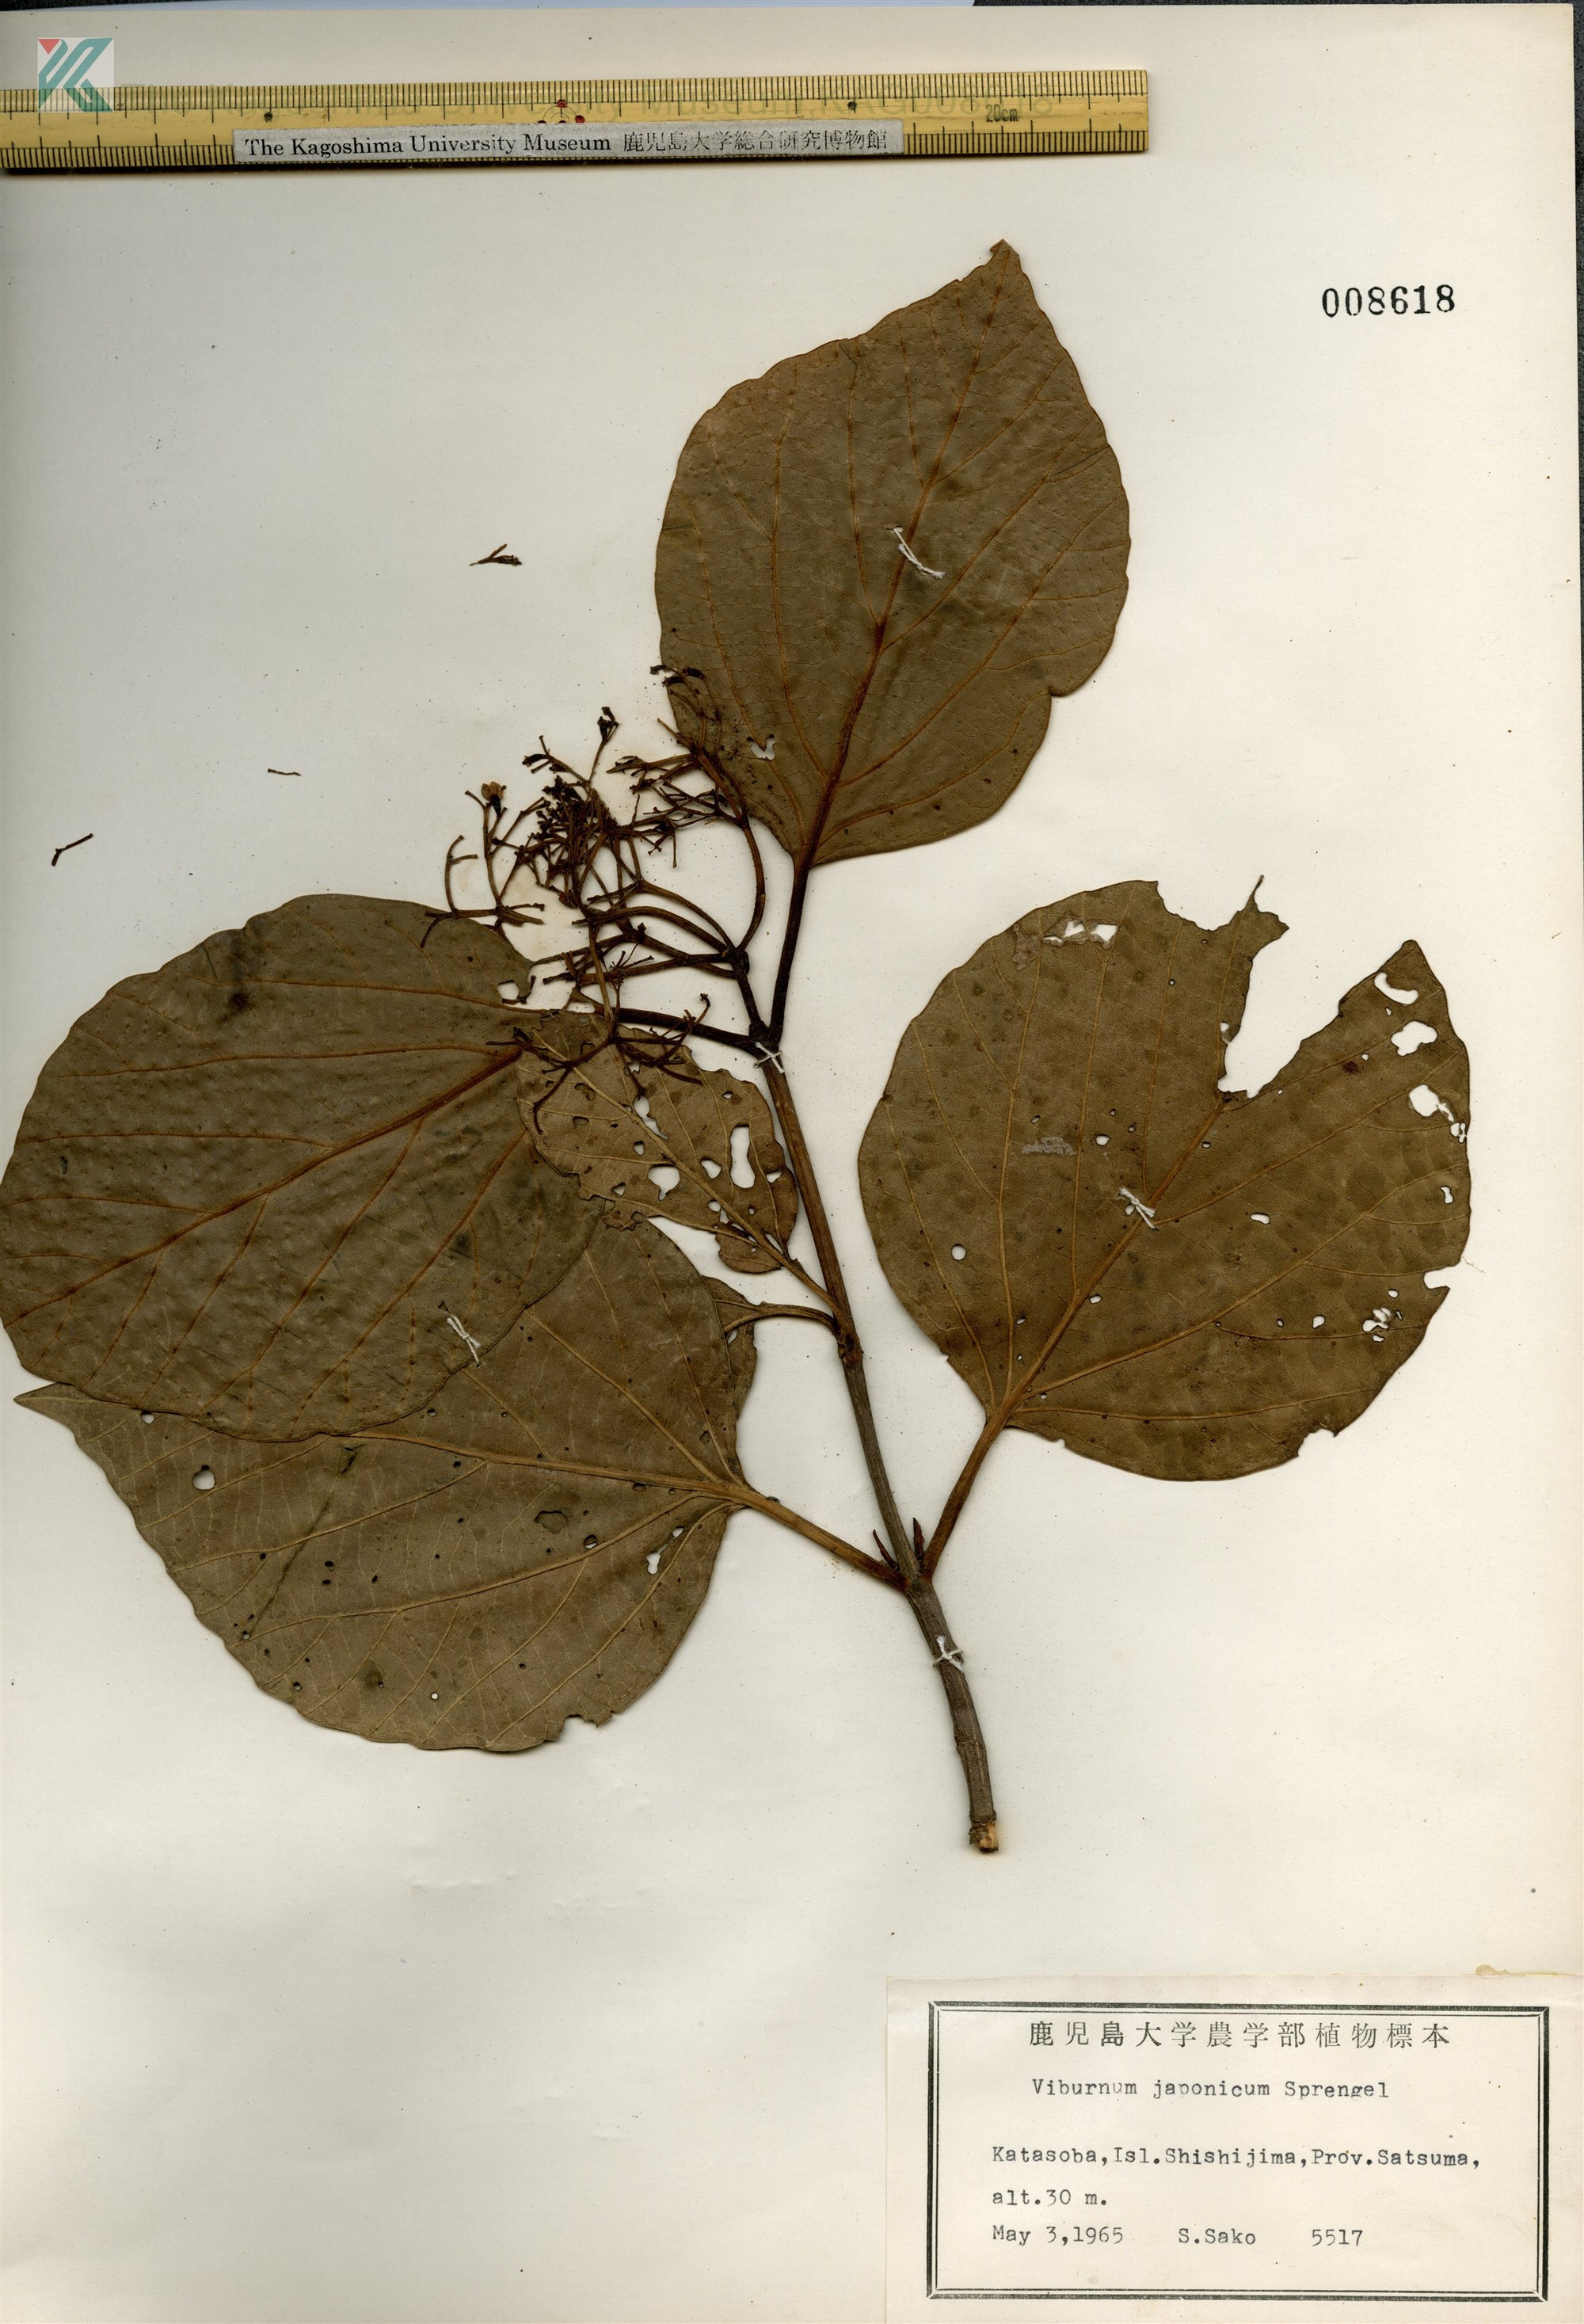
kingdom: Plantae
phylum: Tracheophyta
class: Magnoliopsida
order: Dipsacales
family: Viburnaceae
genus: Viburnum
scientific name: Viburnum japonicum
